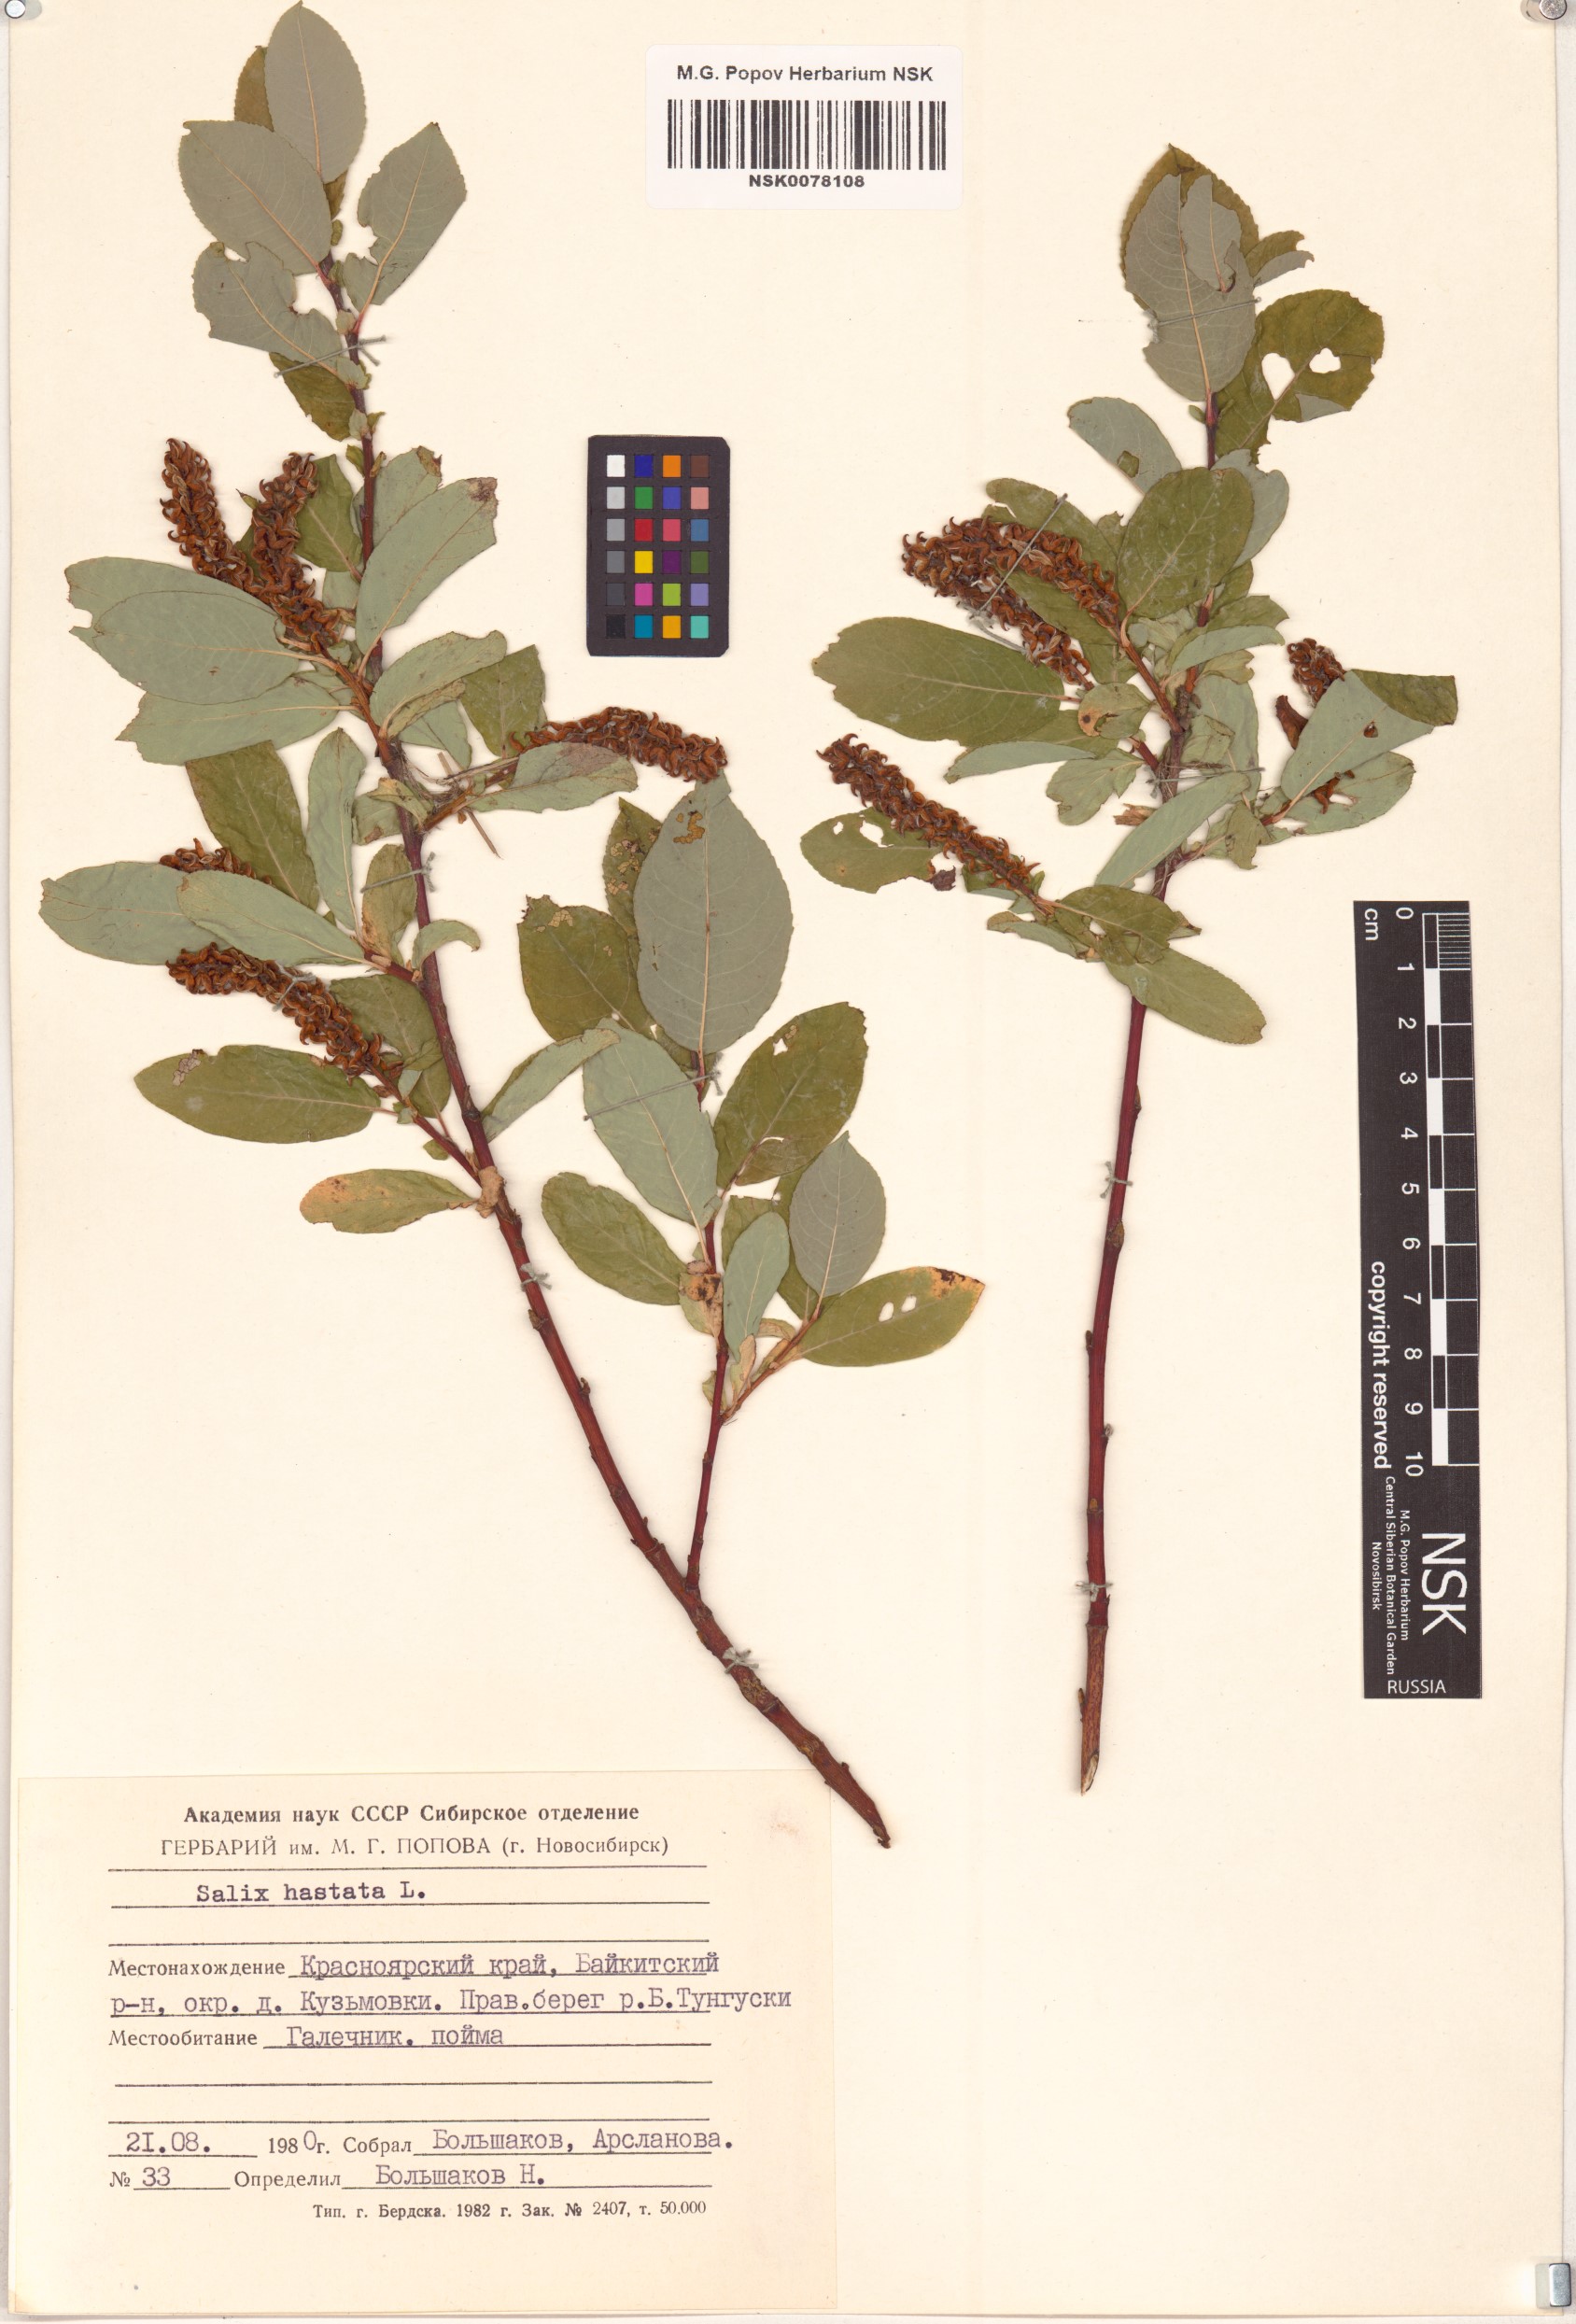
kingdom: Plantae
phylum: Tracheophyta
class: Magnoliopsida
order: Malpighiales
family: Salicaceae
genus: Salix
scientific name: Salix hastata
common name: Halberd willow
